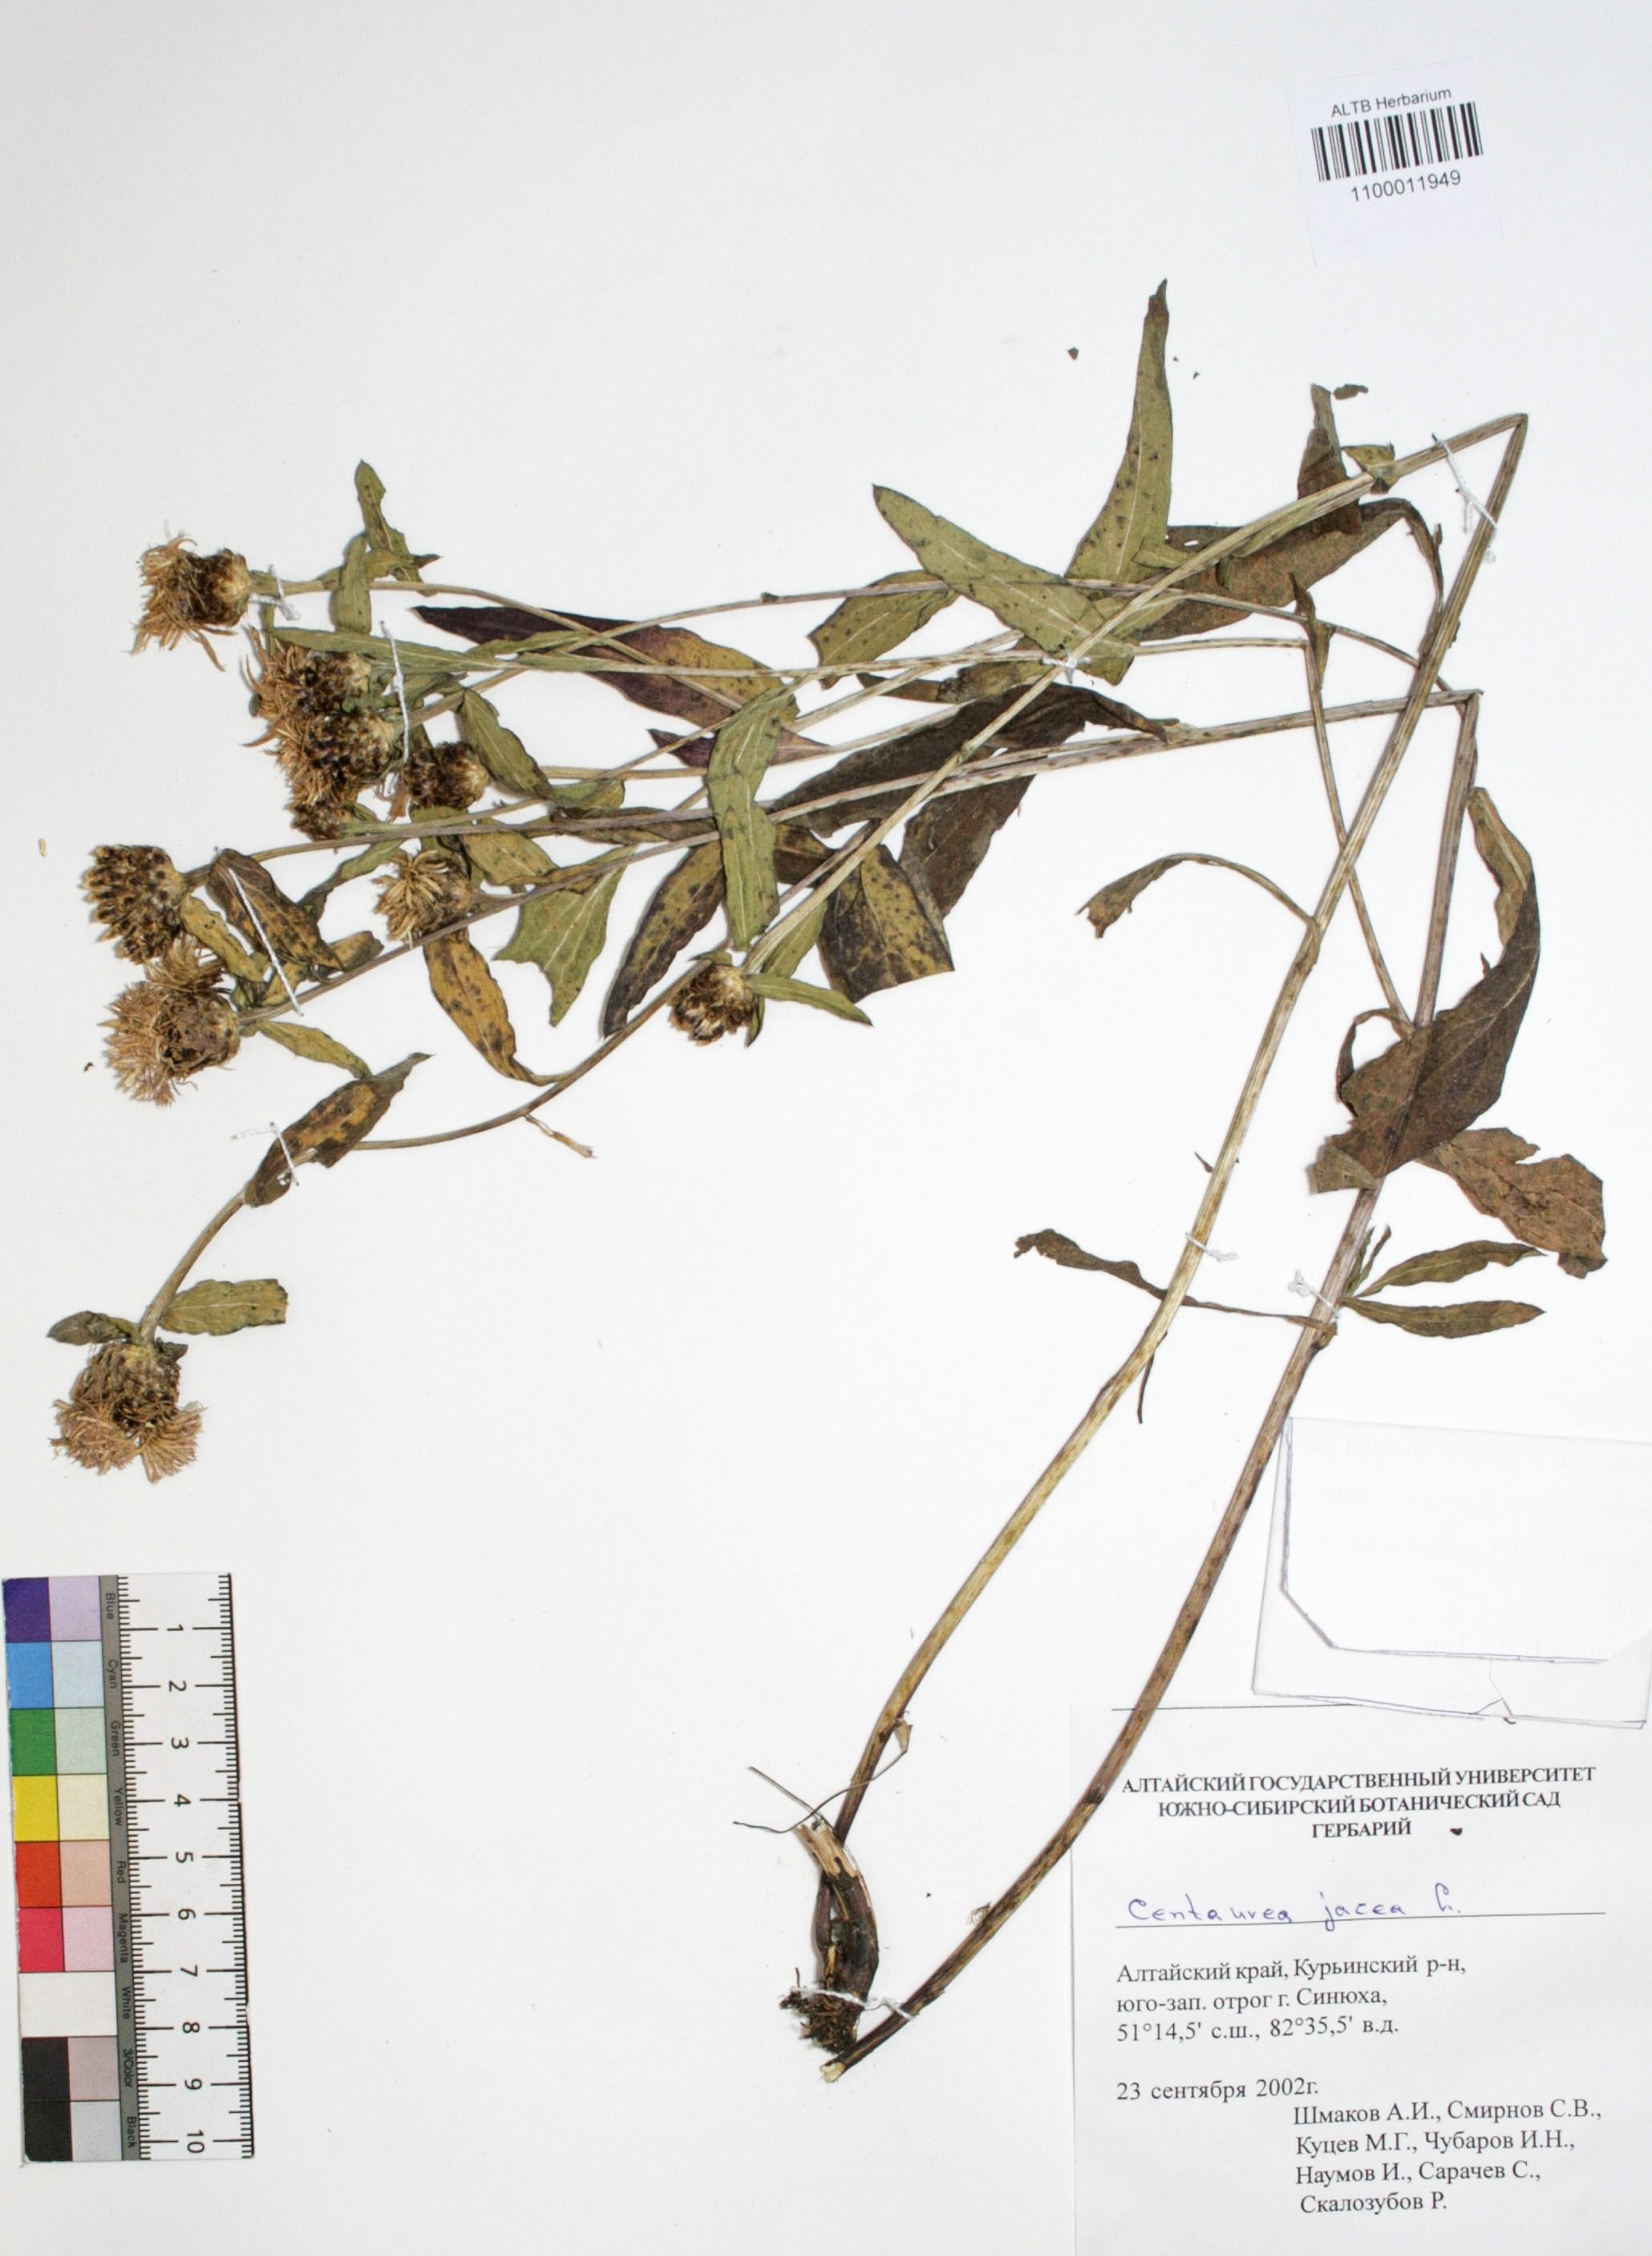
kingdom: Plantae
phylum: Tracheophyta
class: Magnoliopsida
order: Asterales
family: Asteraceae
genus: Centaurea
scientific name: Centaurea jacea
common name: Brown knapweed
